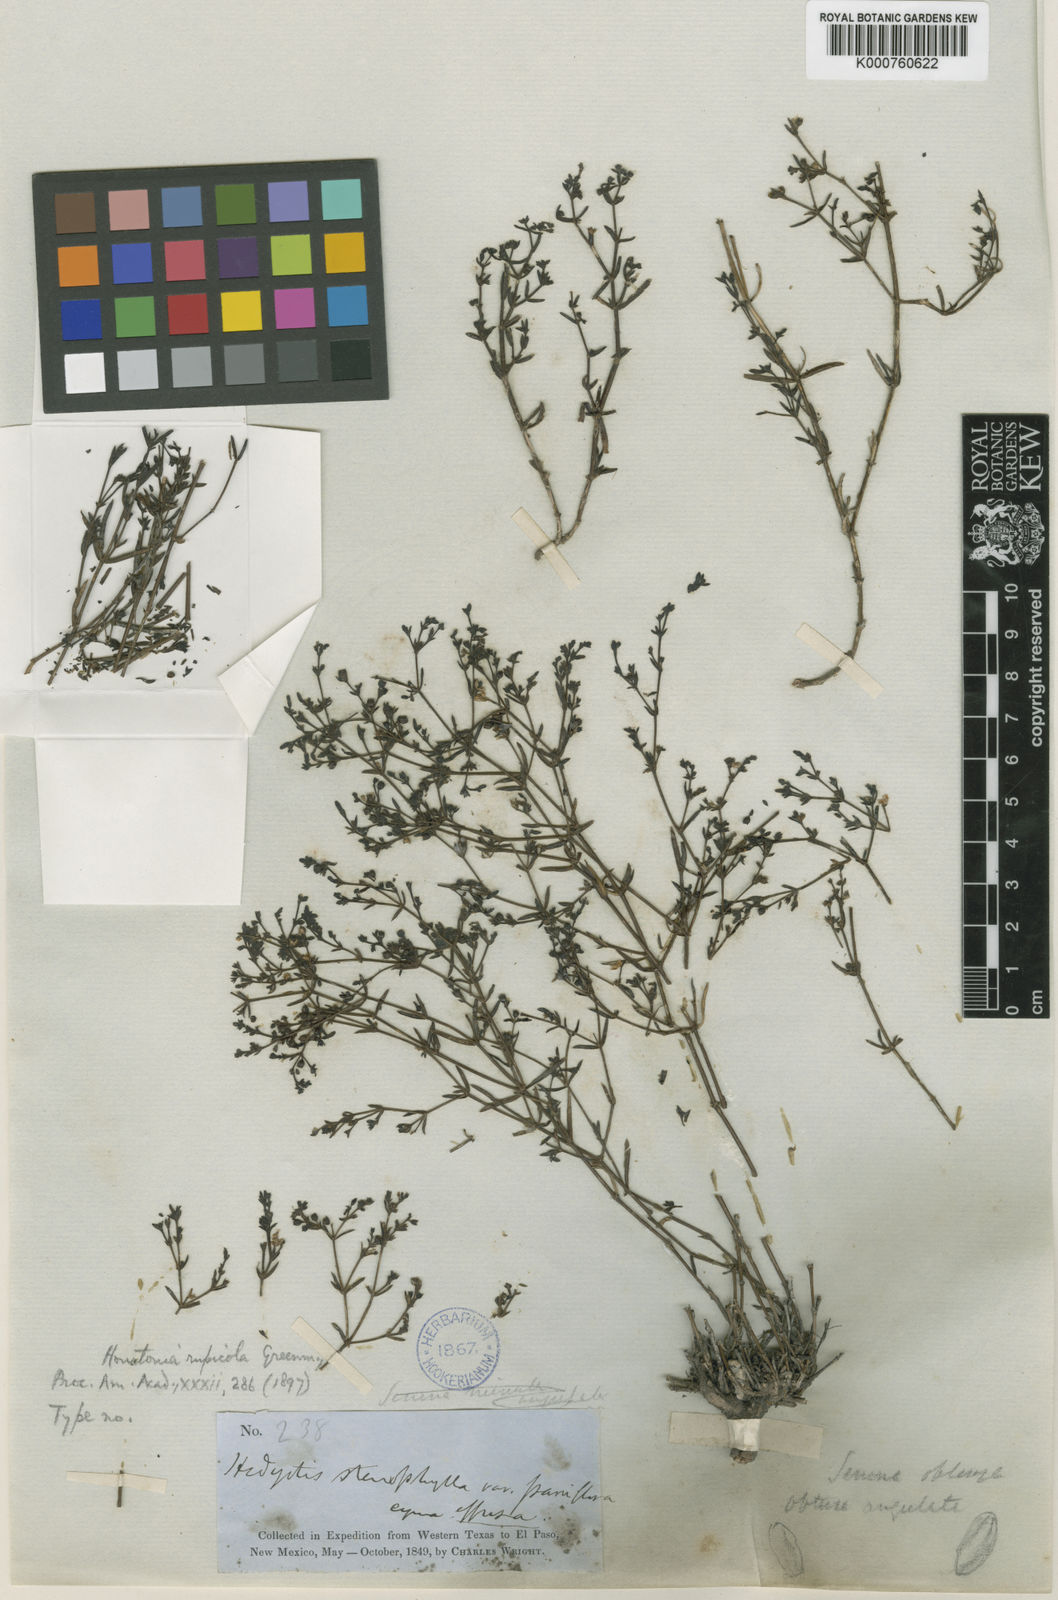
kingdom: Plantae
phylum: Tracheophyta
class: Magnoliopsida
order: Gentianales
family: Rubiaceae
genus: Stenaria
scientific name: Stenaria rupicola
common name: Smallflower starviolet
